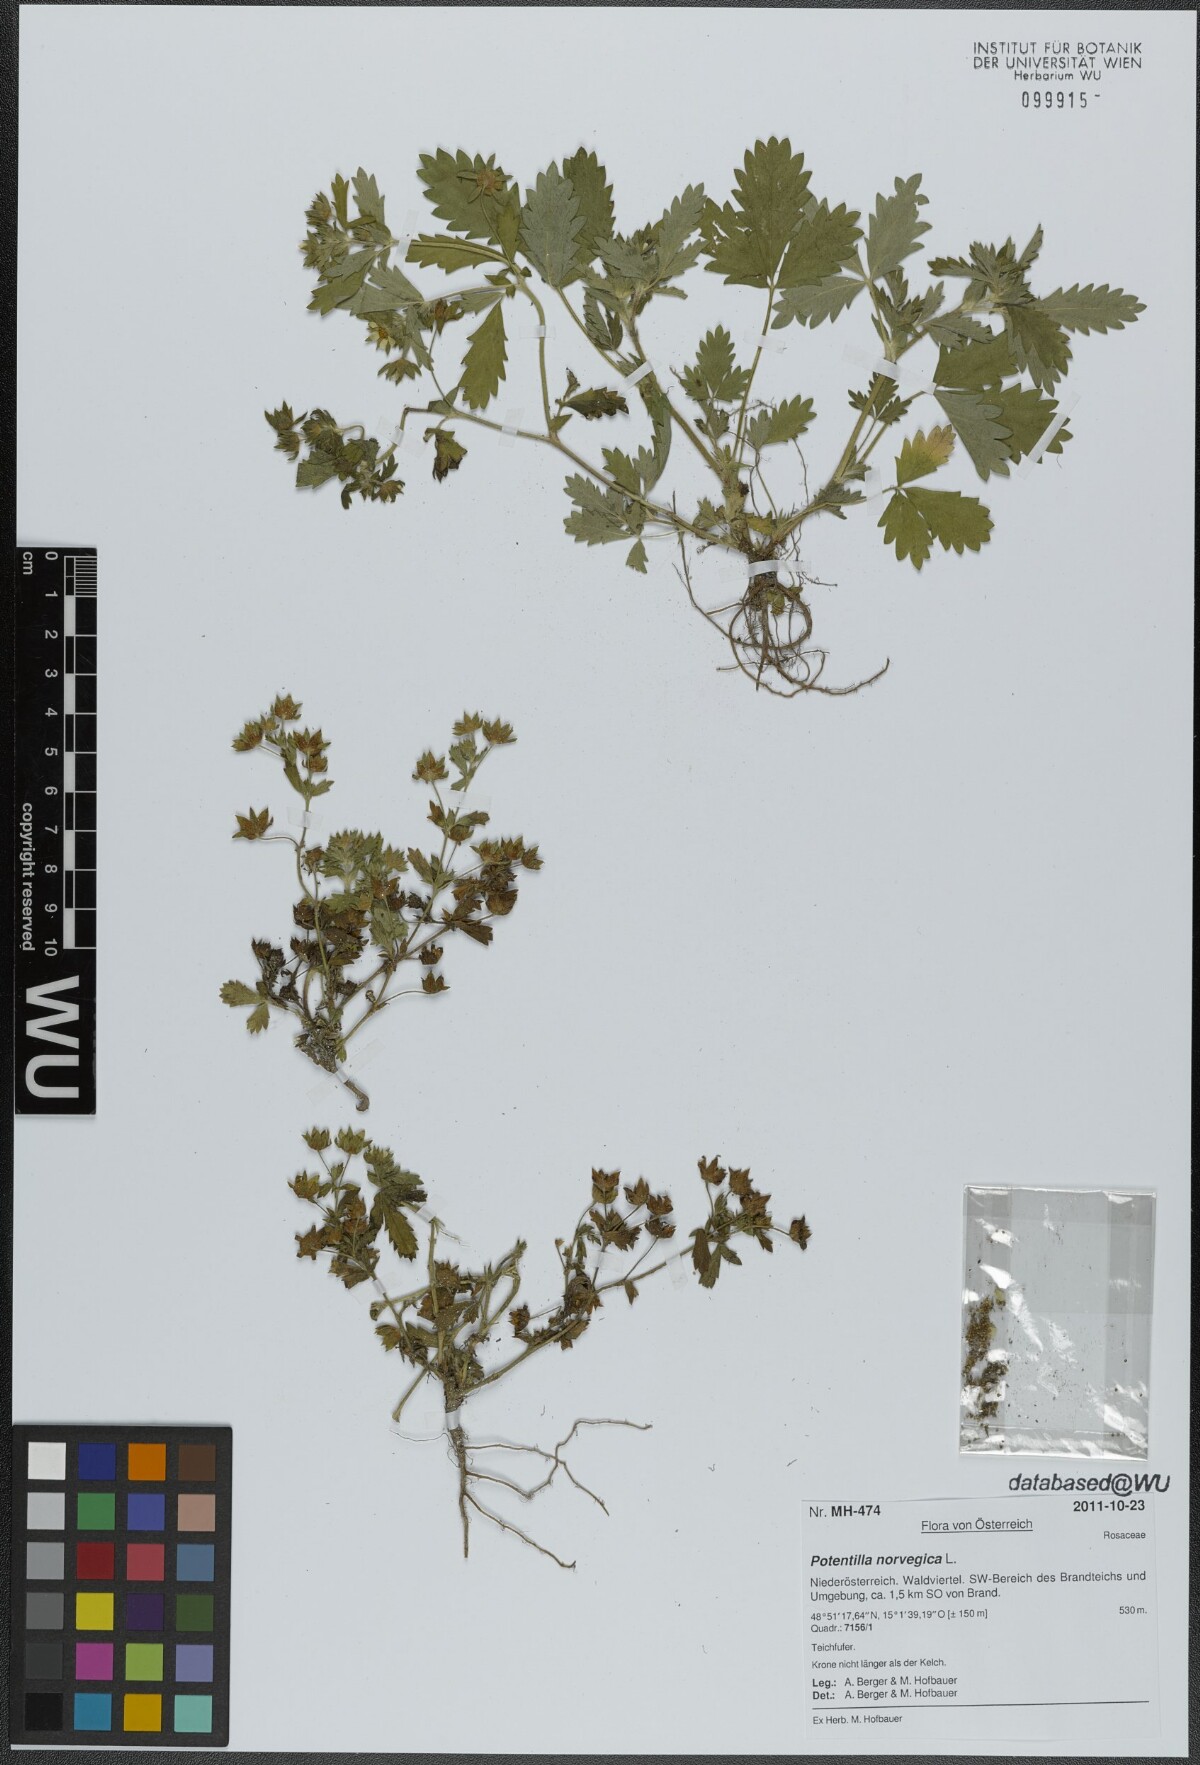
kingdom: Plantae
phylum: Tracheophyta
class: Magnoliopsida
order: Rosales
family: Rosaceae
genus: Potentilla
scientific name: Potentilla norvegica
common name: Ternate-leaved cinquefoil
